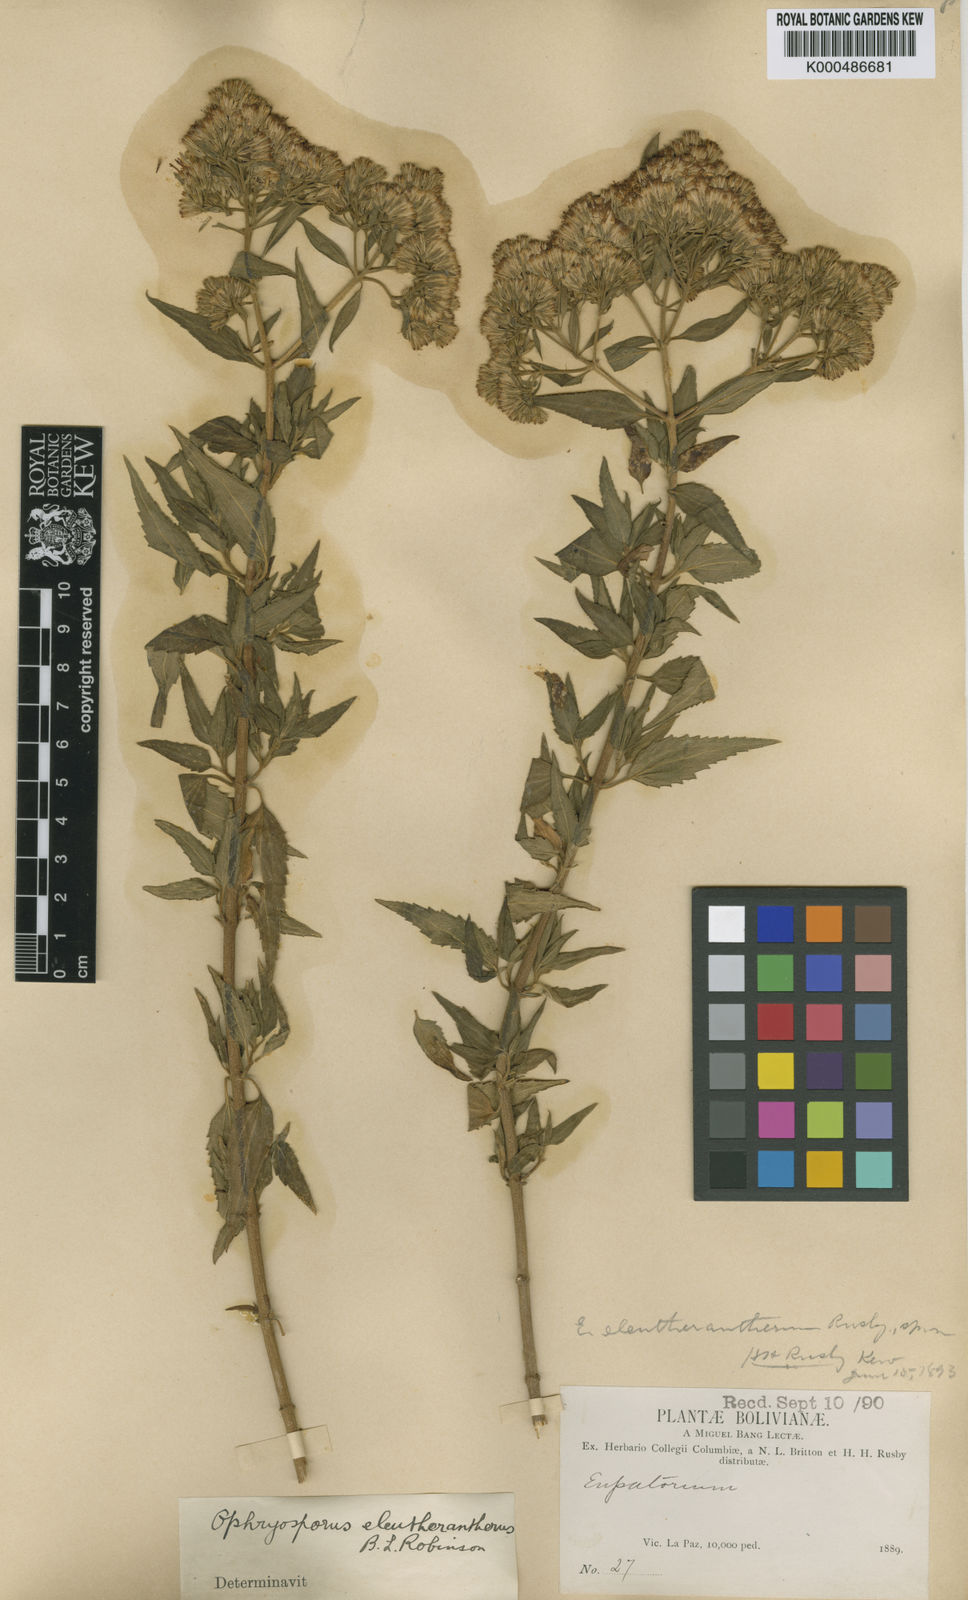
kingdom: Plantae
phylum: Tracheophyta
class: Magnoliopsida
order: Asterales
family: Asteraceae
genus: Ophryosporus
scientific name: Ophryosporus eleutherantherus
